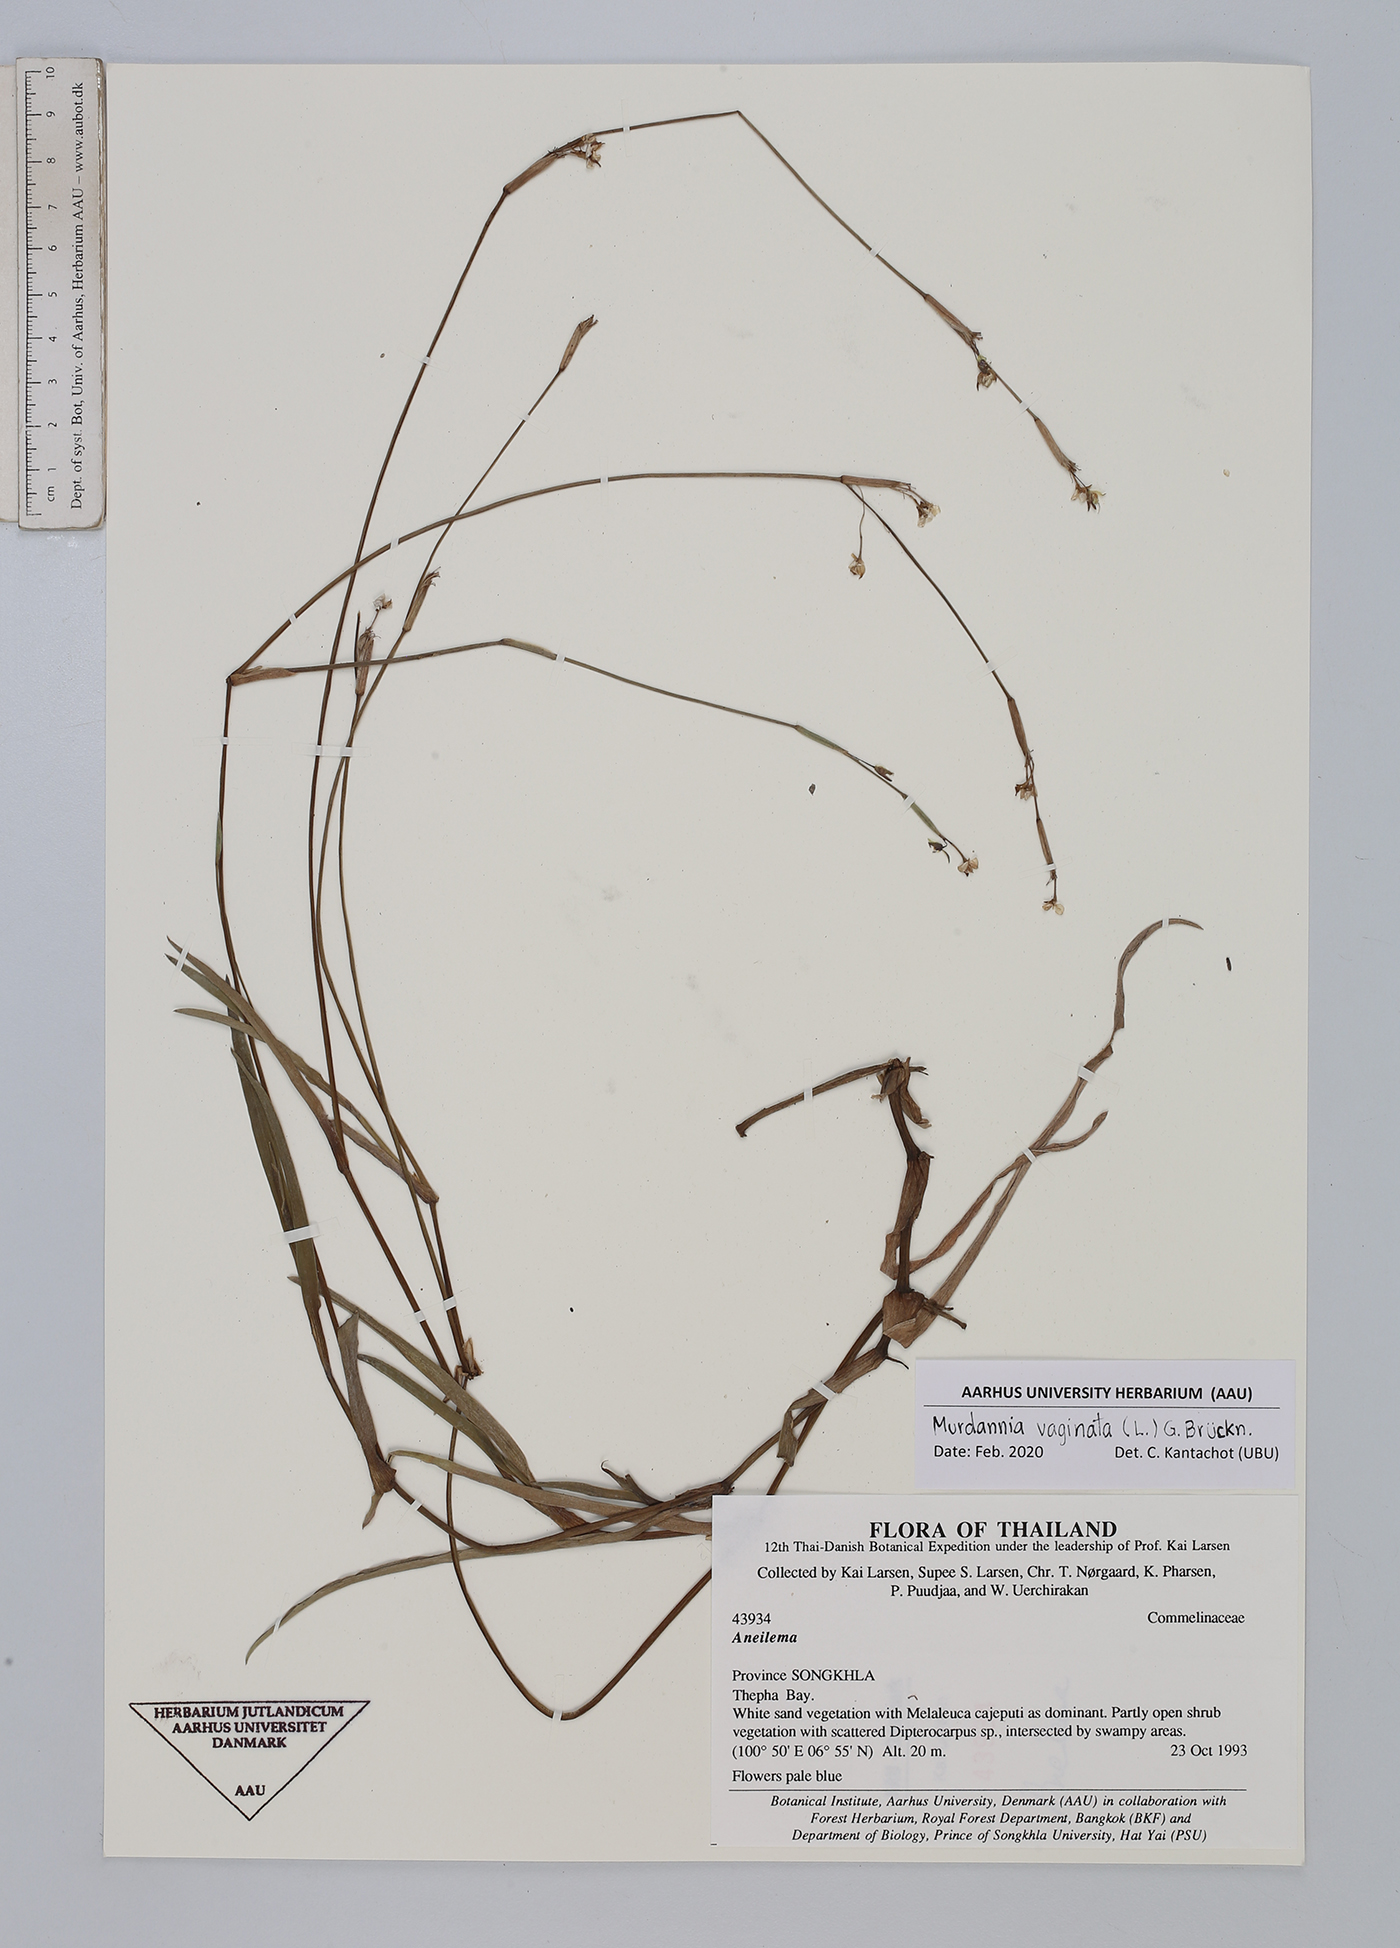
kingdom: Plantae
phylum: Tracheophyta
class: Liliopsida
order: Commelinales
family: Commelinaceae
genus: Murdannia
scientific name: Murdannia vaginata
